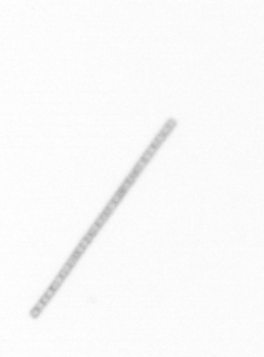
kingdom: Chromista
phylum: Ochrophyta
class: Bacillariophyceae
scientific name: Bacillariophyceae
